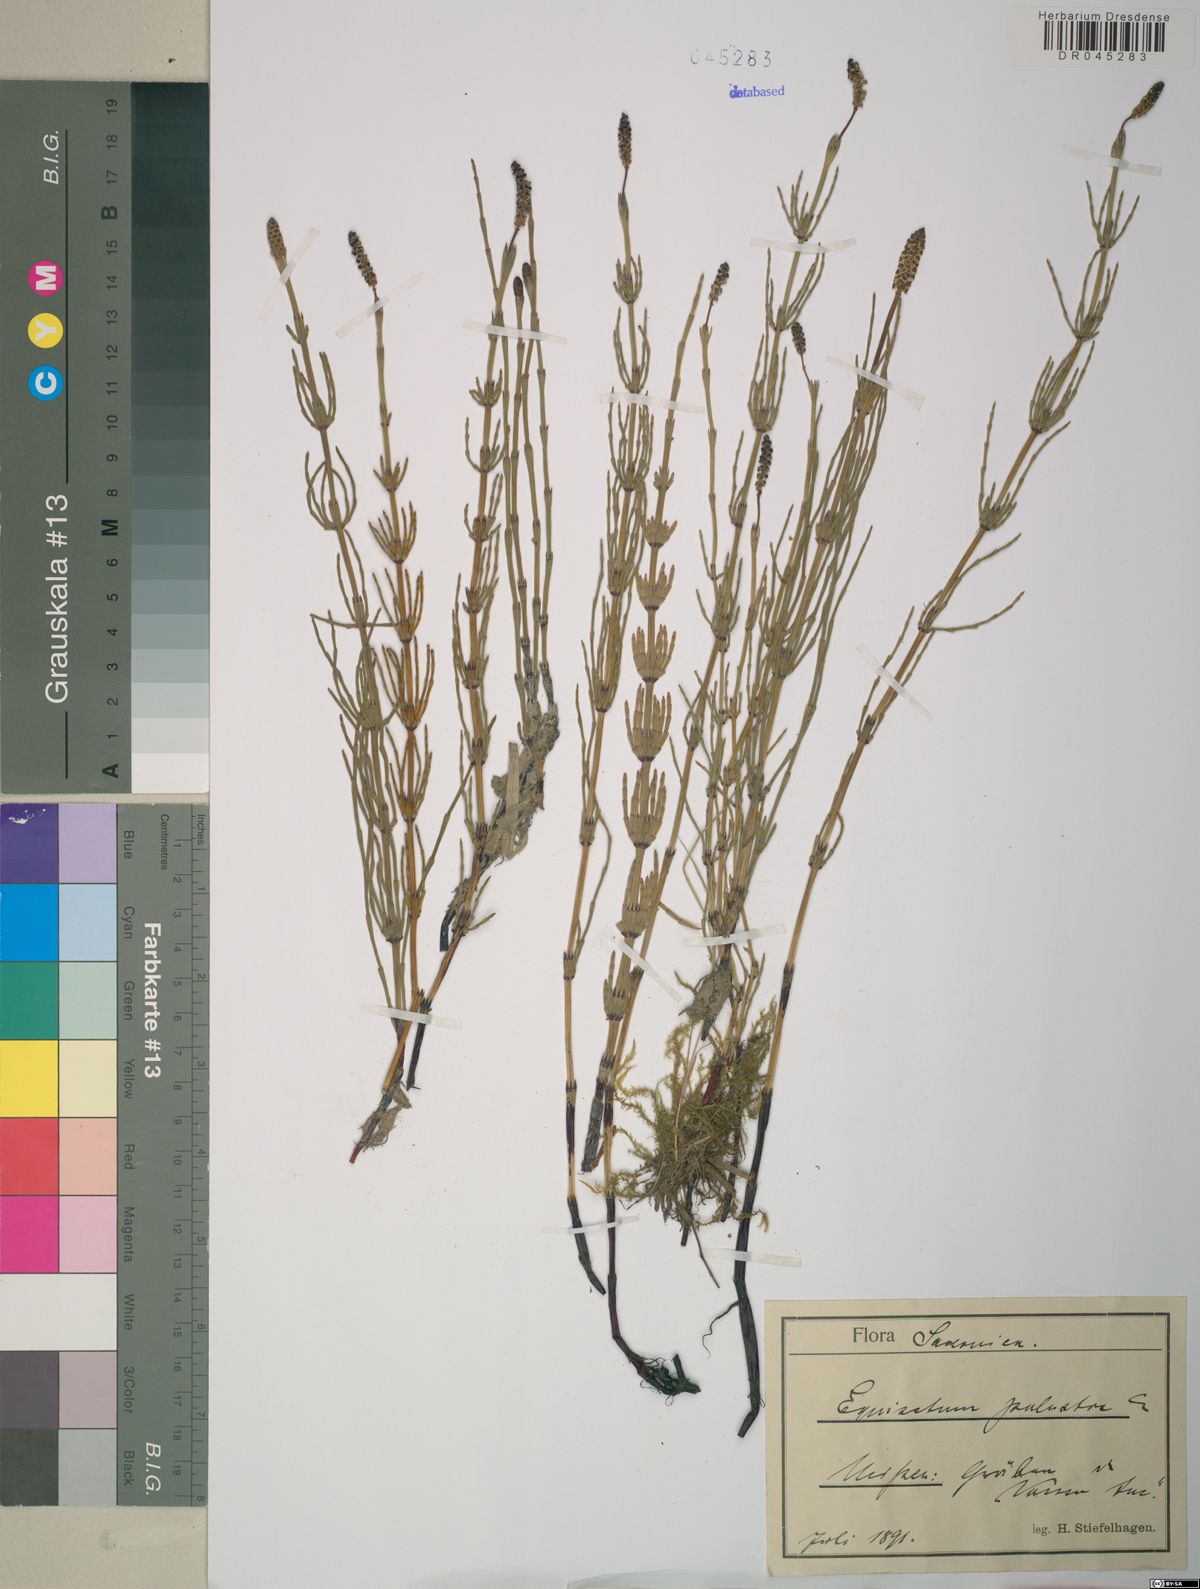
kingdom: Plantae
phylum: Tracheophyta
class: Polypodiopsida
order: Equisetales
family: Equisetaceae
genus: Equisetum
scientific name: Equisetum palustre
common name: Marsh horsetail
